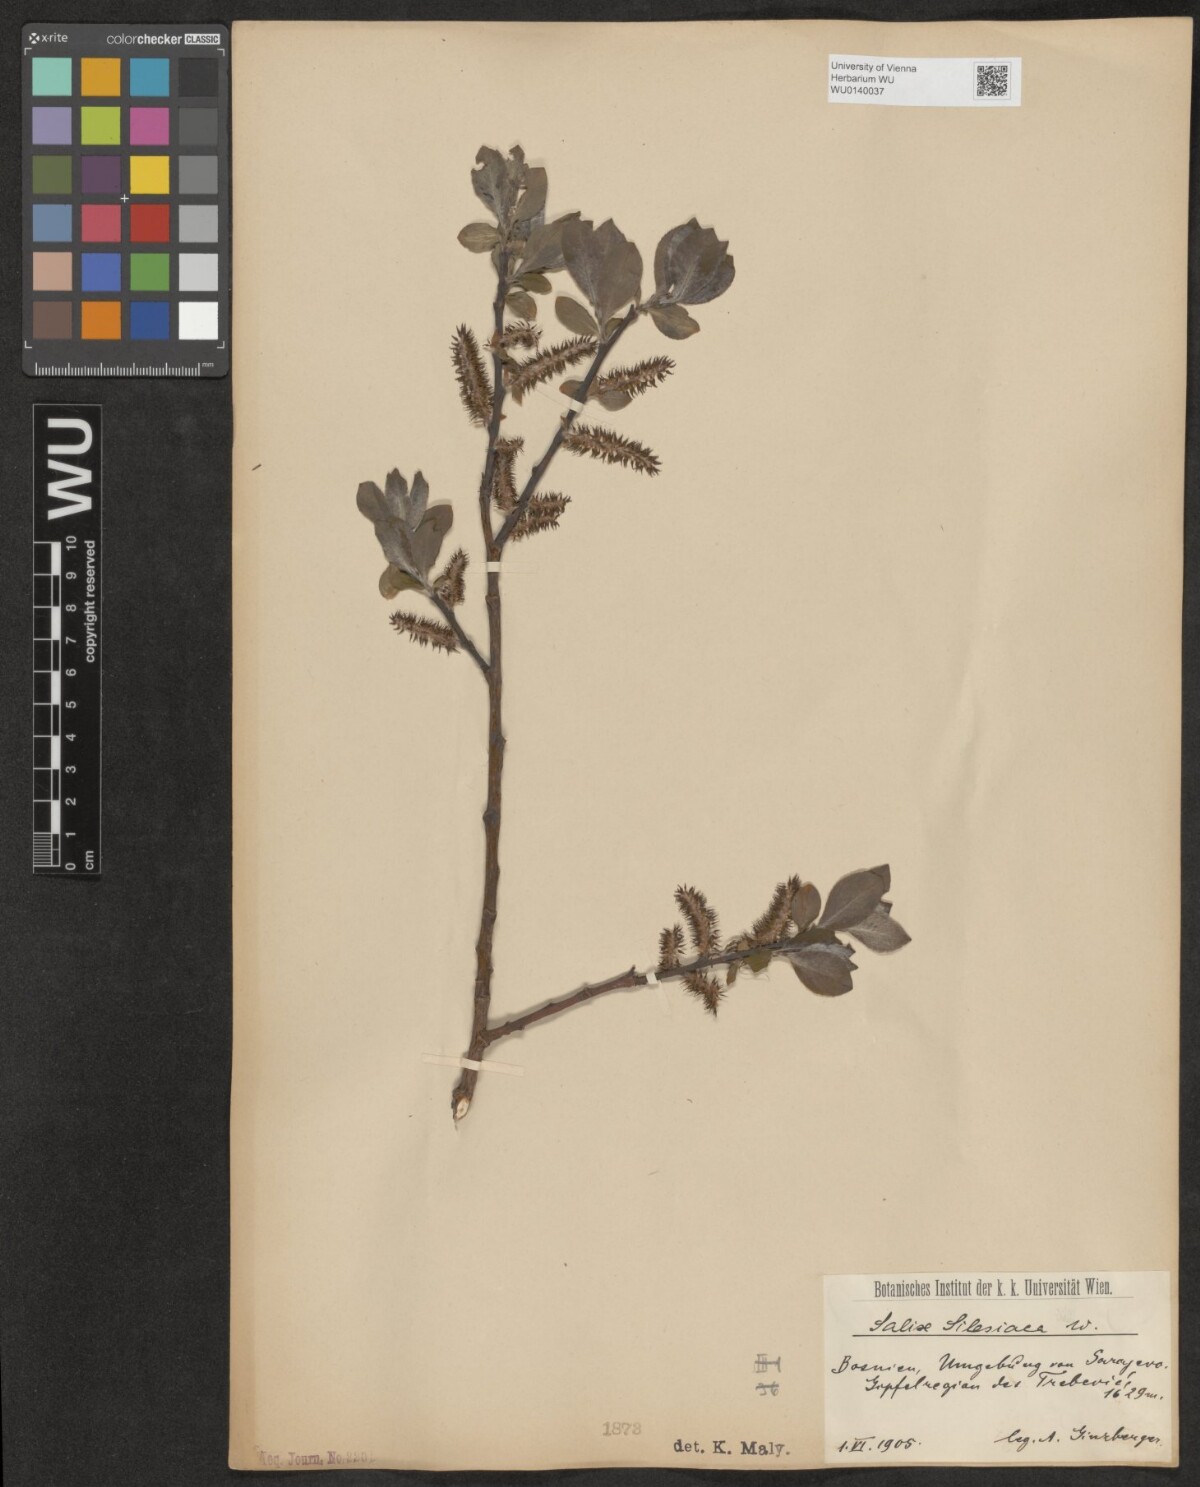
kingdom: Plantae
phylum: Tracheophyta
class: Magnoliopsida
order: Malpighiales
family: Salicaceae
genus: Salix
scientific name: Salix silesiaca
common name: Silesian willow
